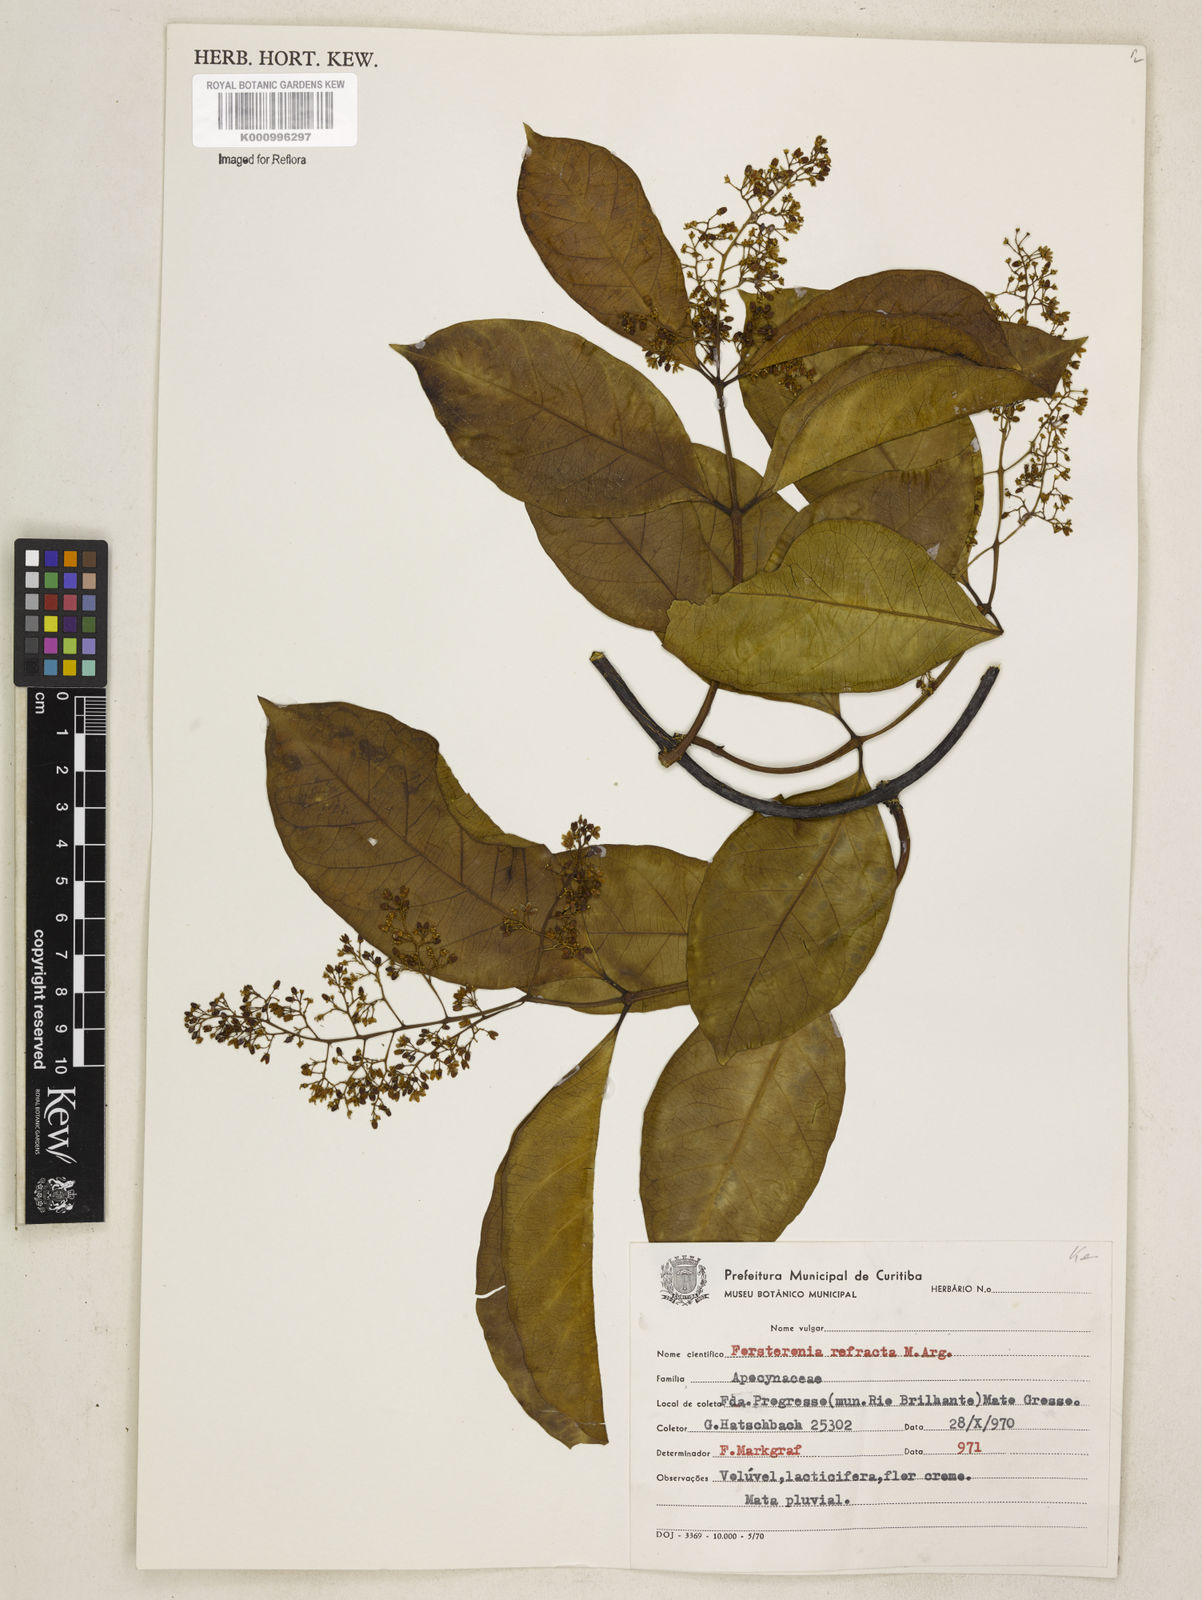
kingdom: Plantae
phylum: Tracheophyta
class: Magnoliopsida
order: Gentianales
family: Apocynaceae
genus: Forsteronia
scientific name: Forsteronia
